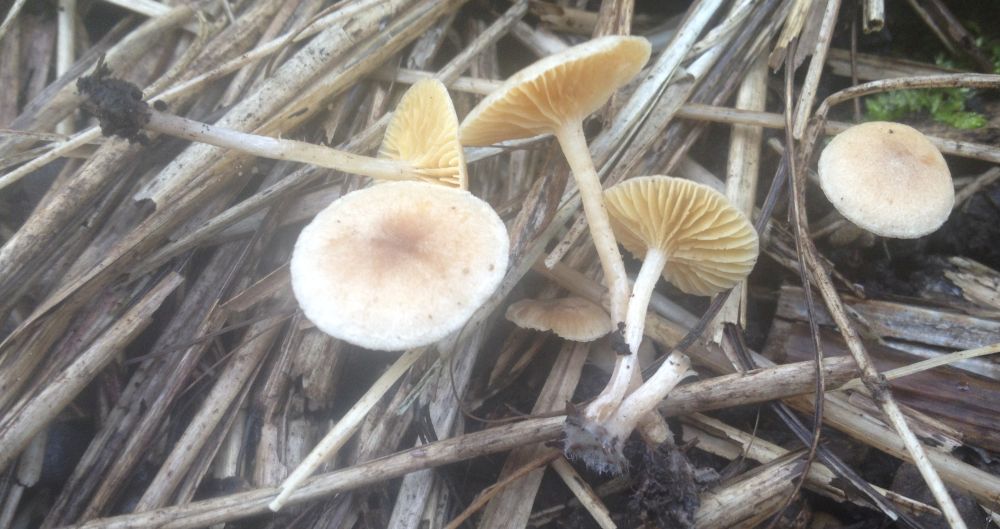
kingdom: Fungi
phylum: Basidiomycota
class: Agaricomycetes
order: Agaricales
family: Tubariaceae
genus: Tubaria
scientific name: Tubaria dispersa
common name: tjørne-fnughat
